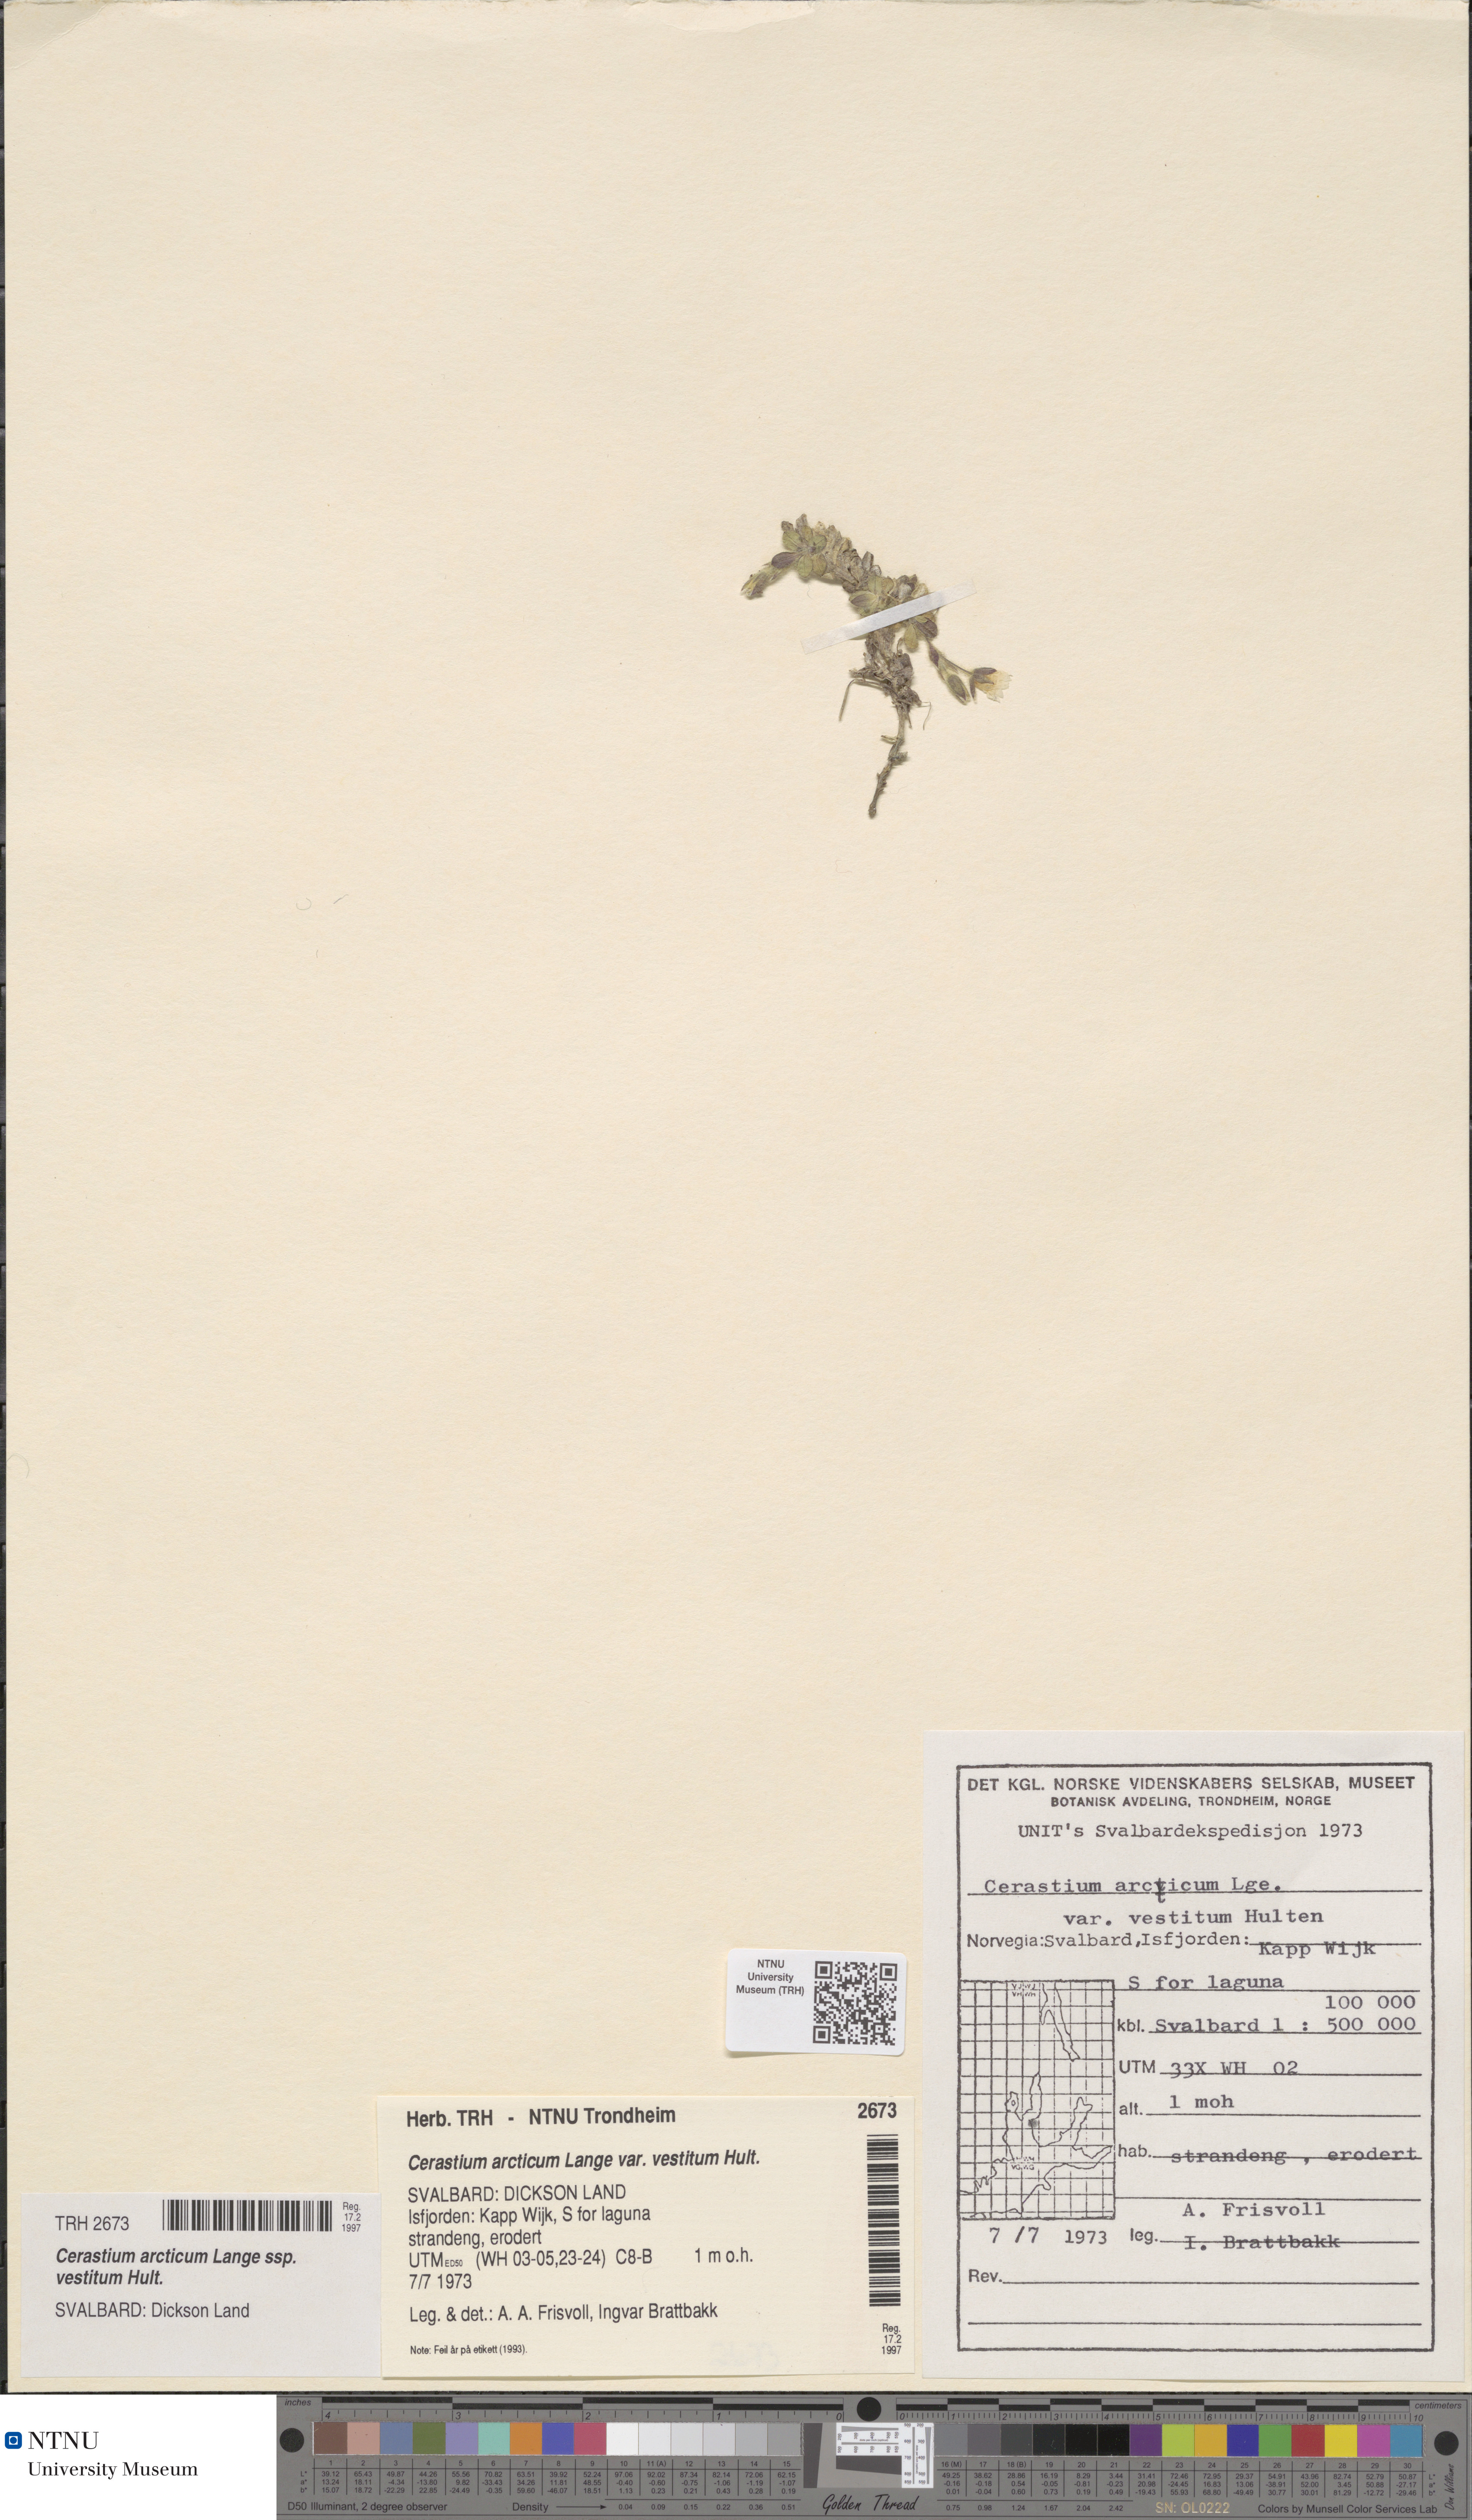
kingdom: Plantae
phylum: Tracheophyta
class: Magnoliopsida
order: Caryophyllales
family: Caryophyllaceae
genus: Cerastium
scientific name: Cerastium arcticum
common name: Arctic mouse-ear
